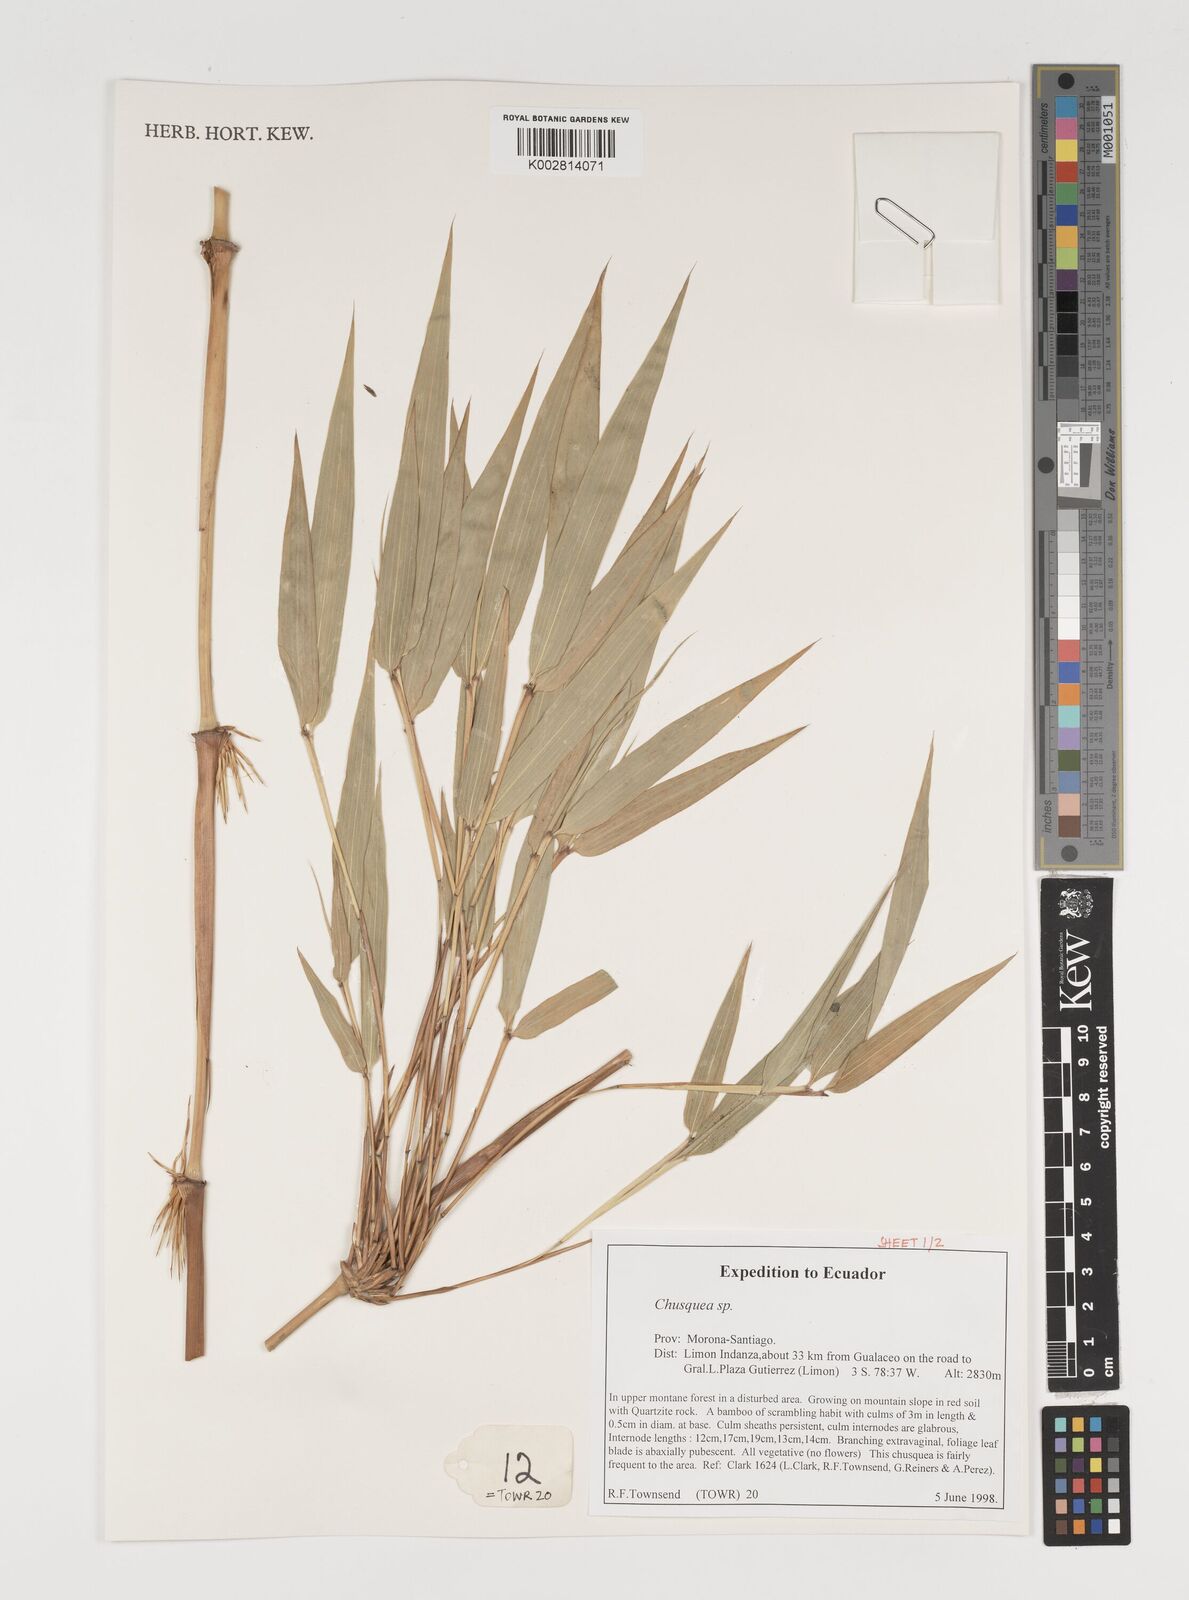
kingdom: Plantae
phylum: Tracheophyta
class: Liliopsida
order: Poales
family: Poaceae
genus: Chusquea
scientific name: Chusquea
